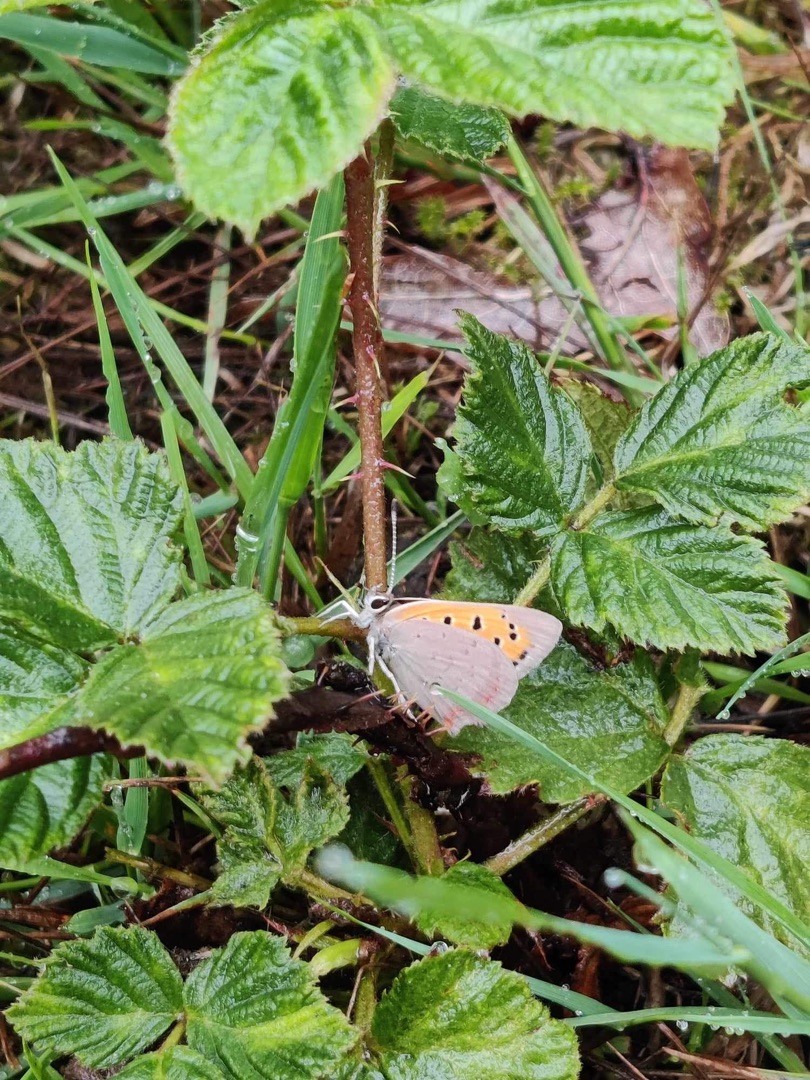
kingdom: Animalia
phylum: Arthropoda
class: Insecta
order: Lepidoptera
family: Lycaenidae
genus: Lycaena
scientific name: Lycaena phlaeas
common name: Lille ildfugl
